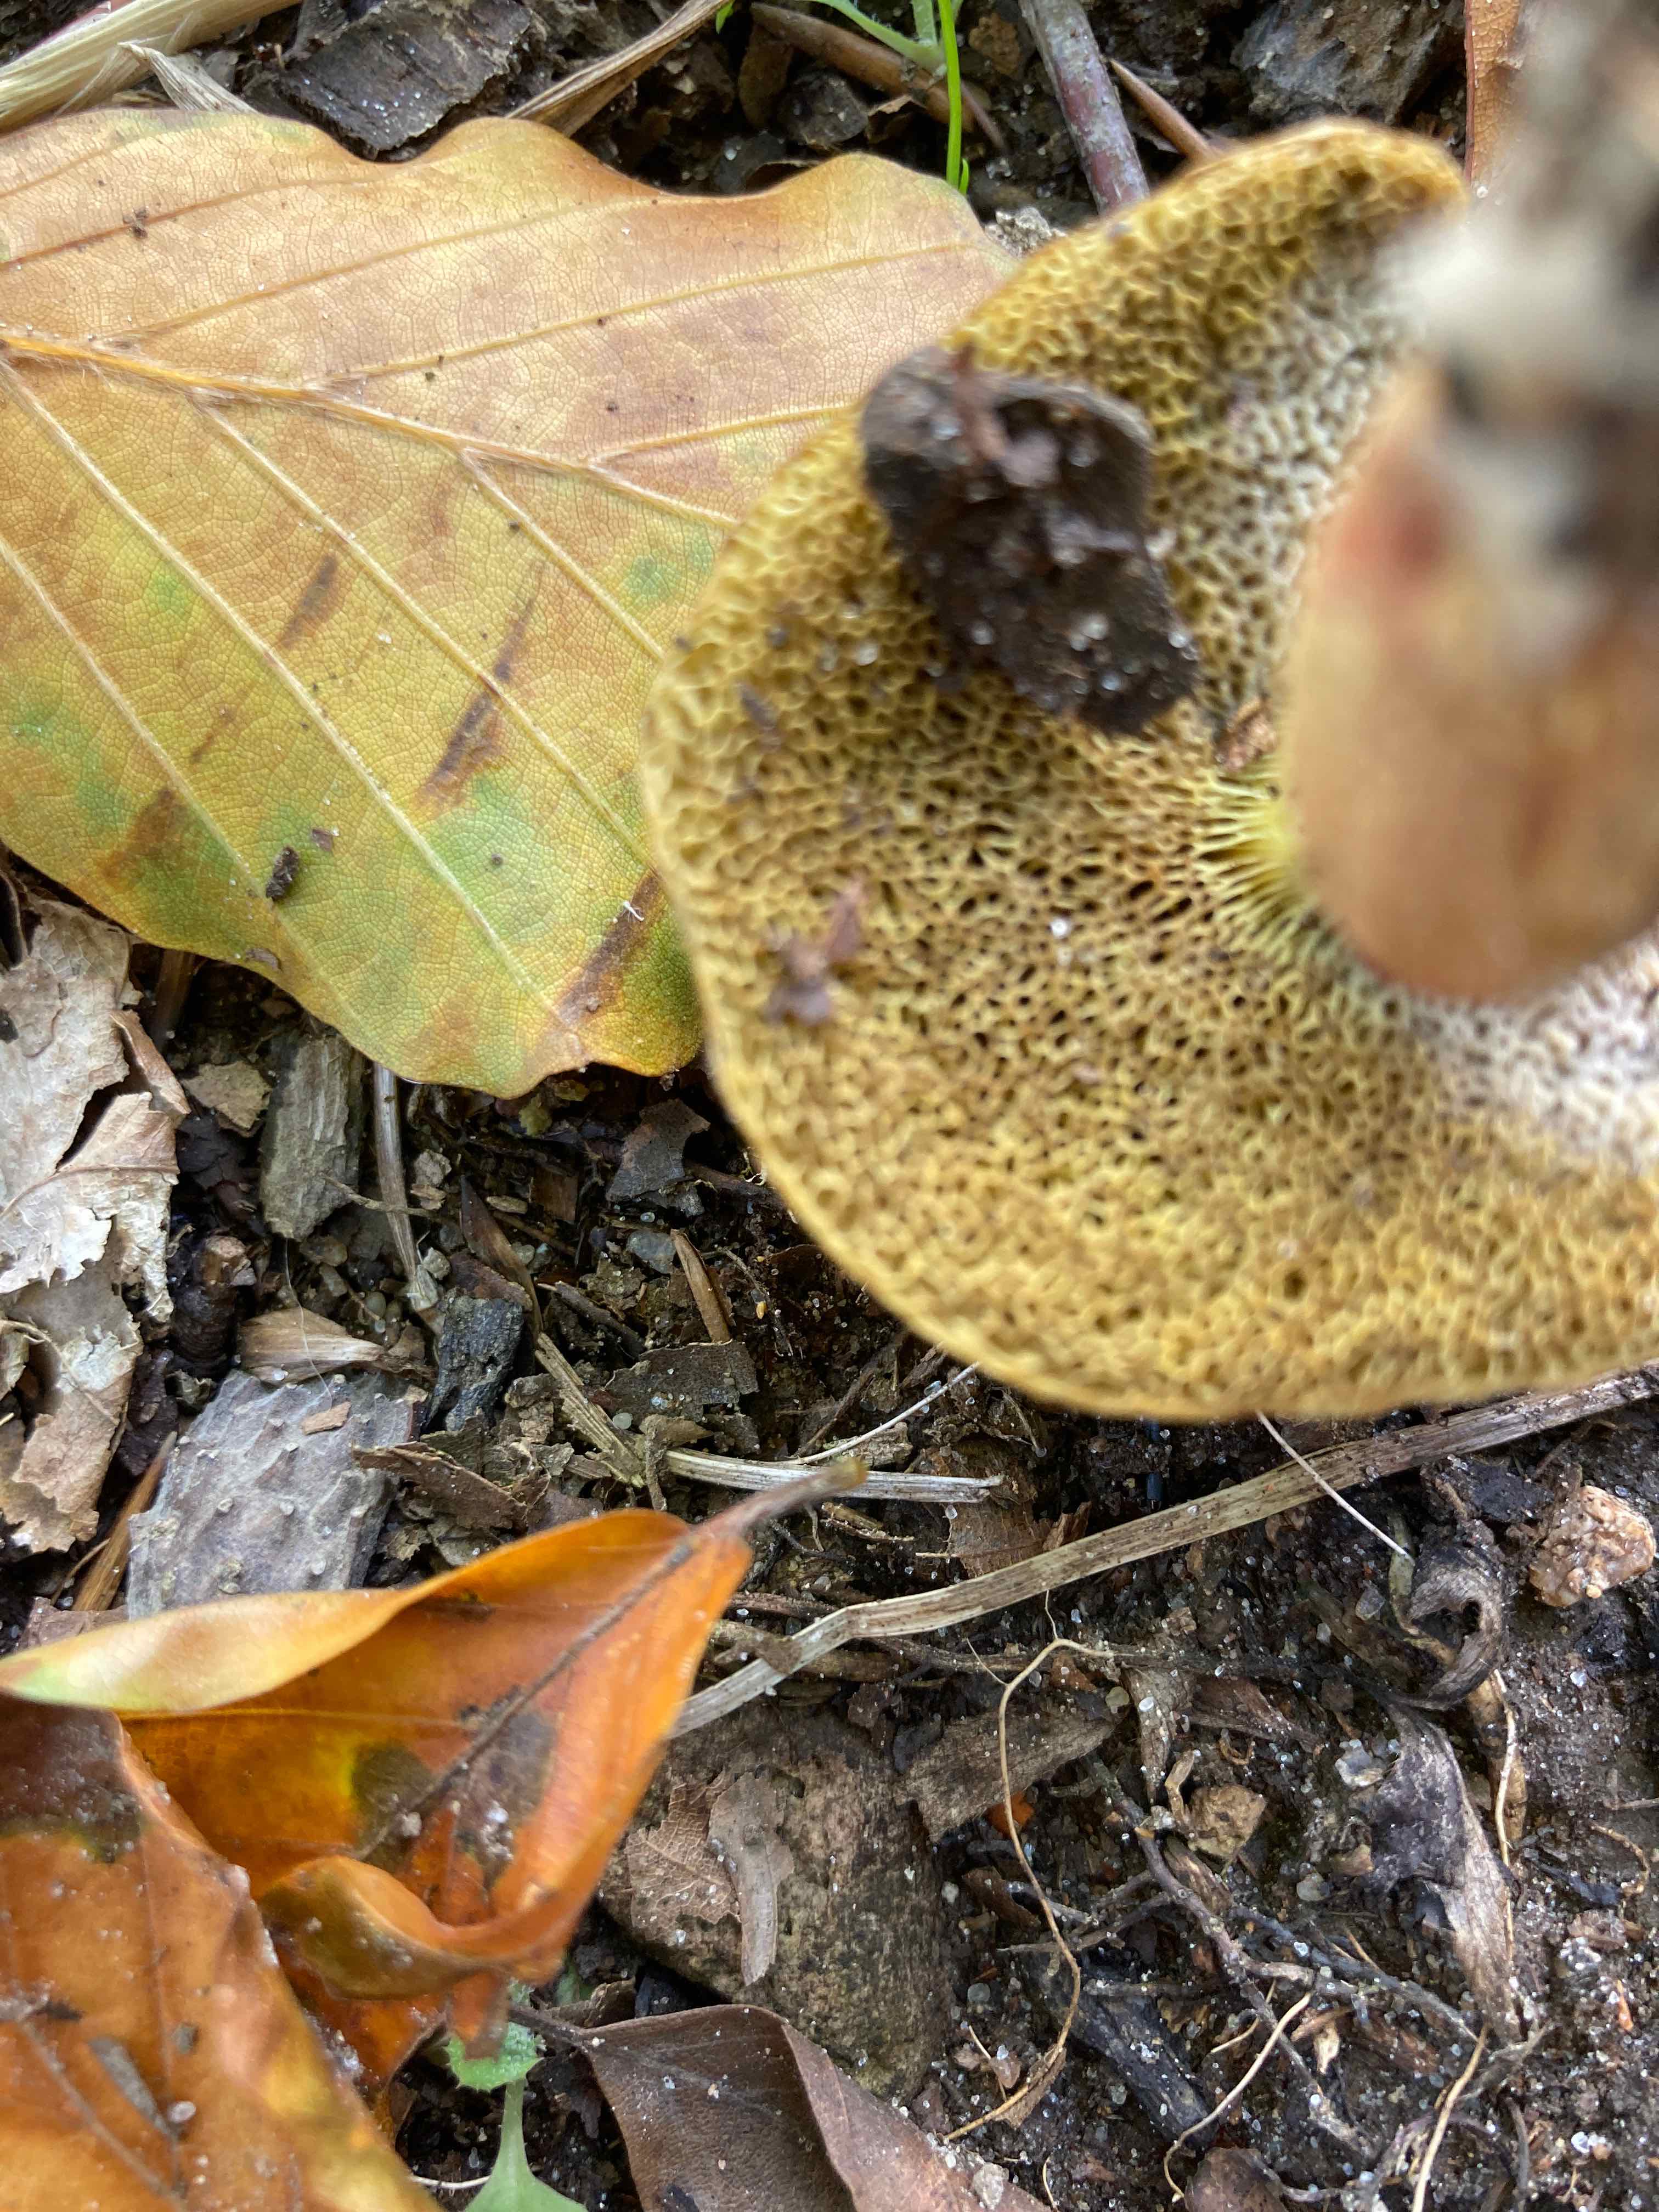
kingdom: Fungi
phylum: Basidiomycota
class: Agaricomycetes
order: Boletales
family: Boletaceae
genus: Xerocomellus
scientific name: Xerocomellus
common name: dværgrørhat
